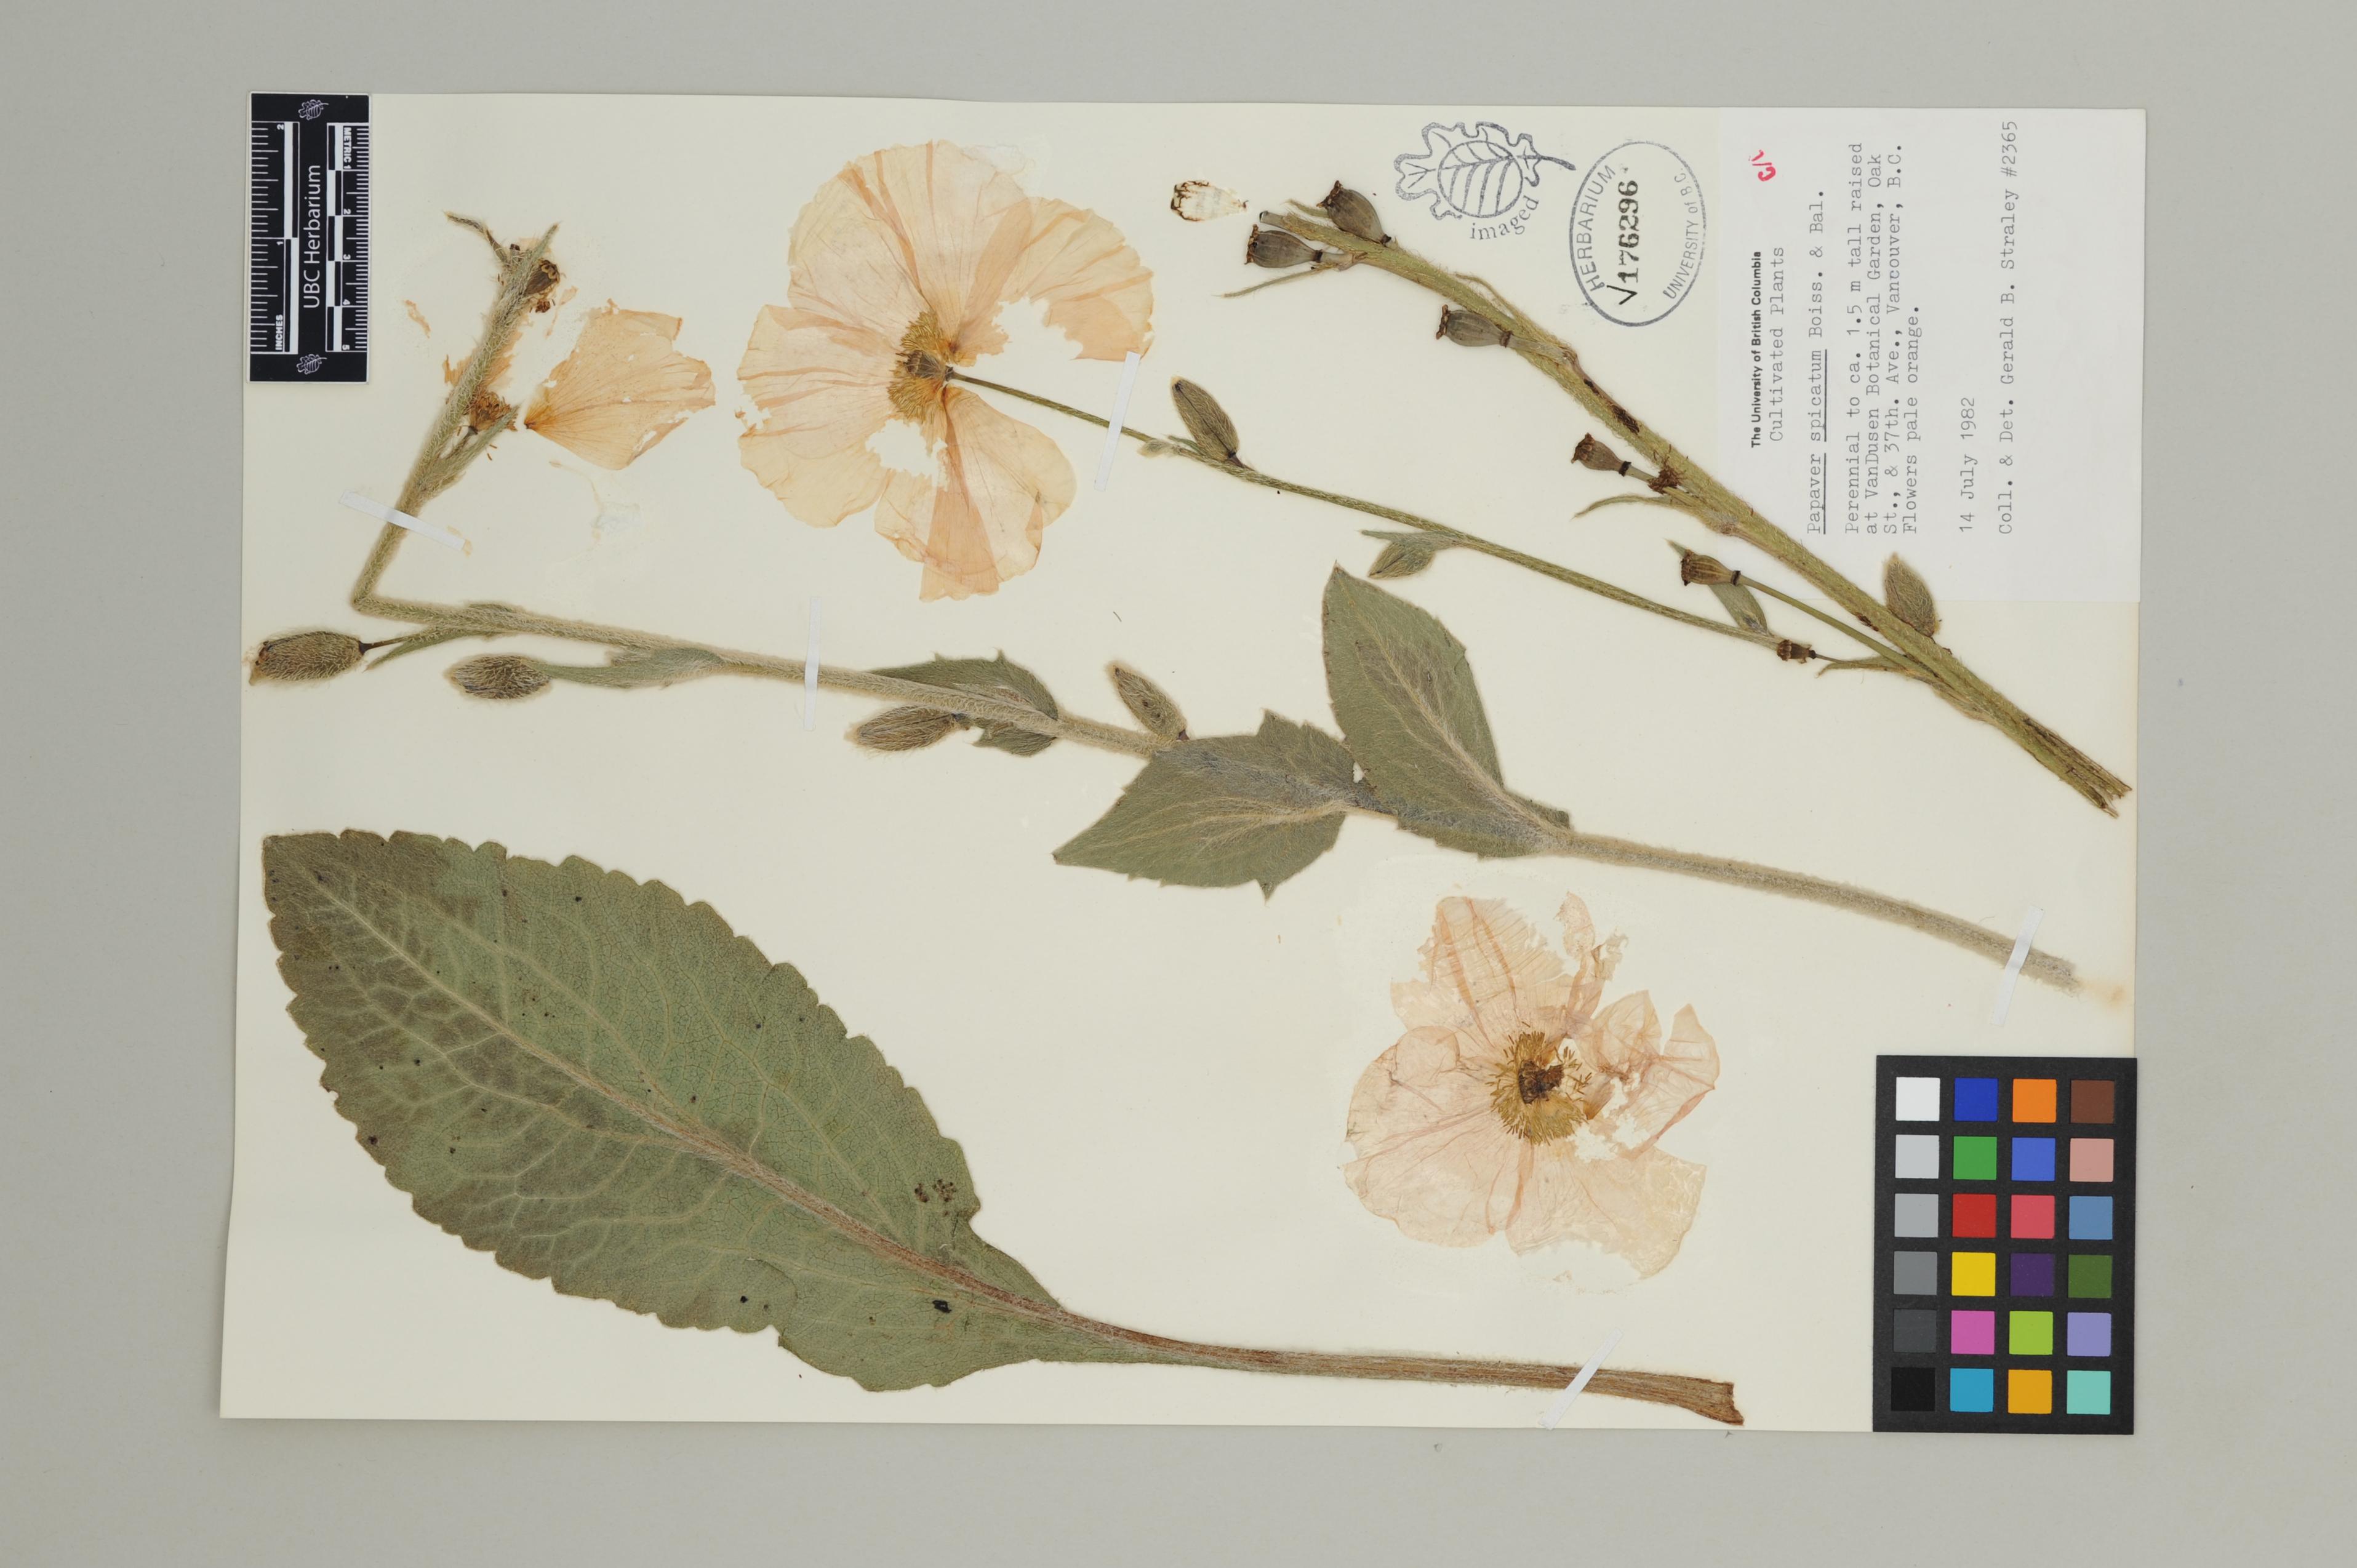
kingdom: Plantae
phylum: Tracheophyta
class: Magnoliopsida
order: Ranunculales
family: Papaveraceae
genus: Papaver
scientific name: Papaver pilosum
